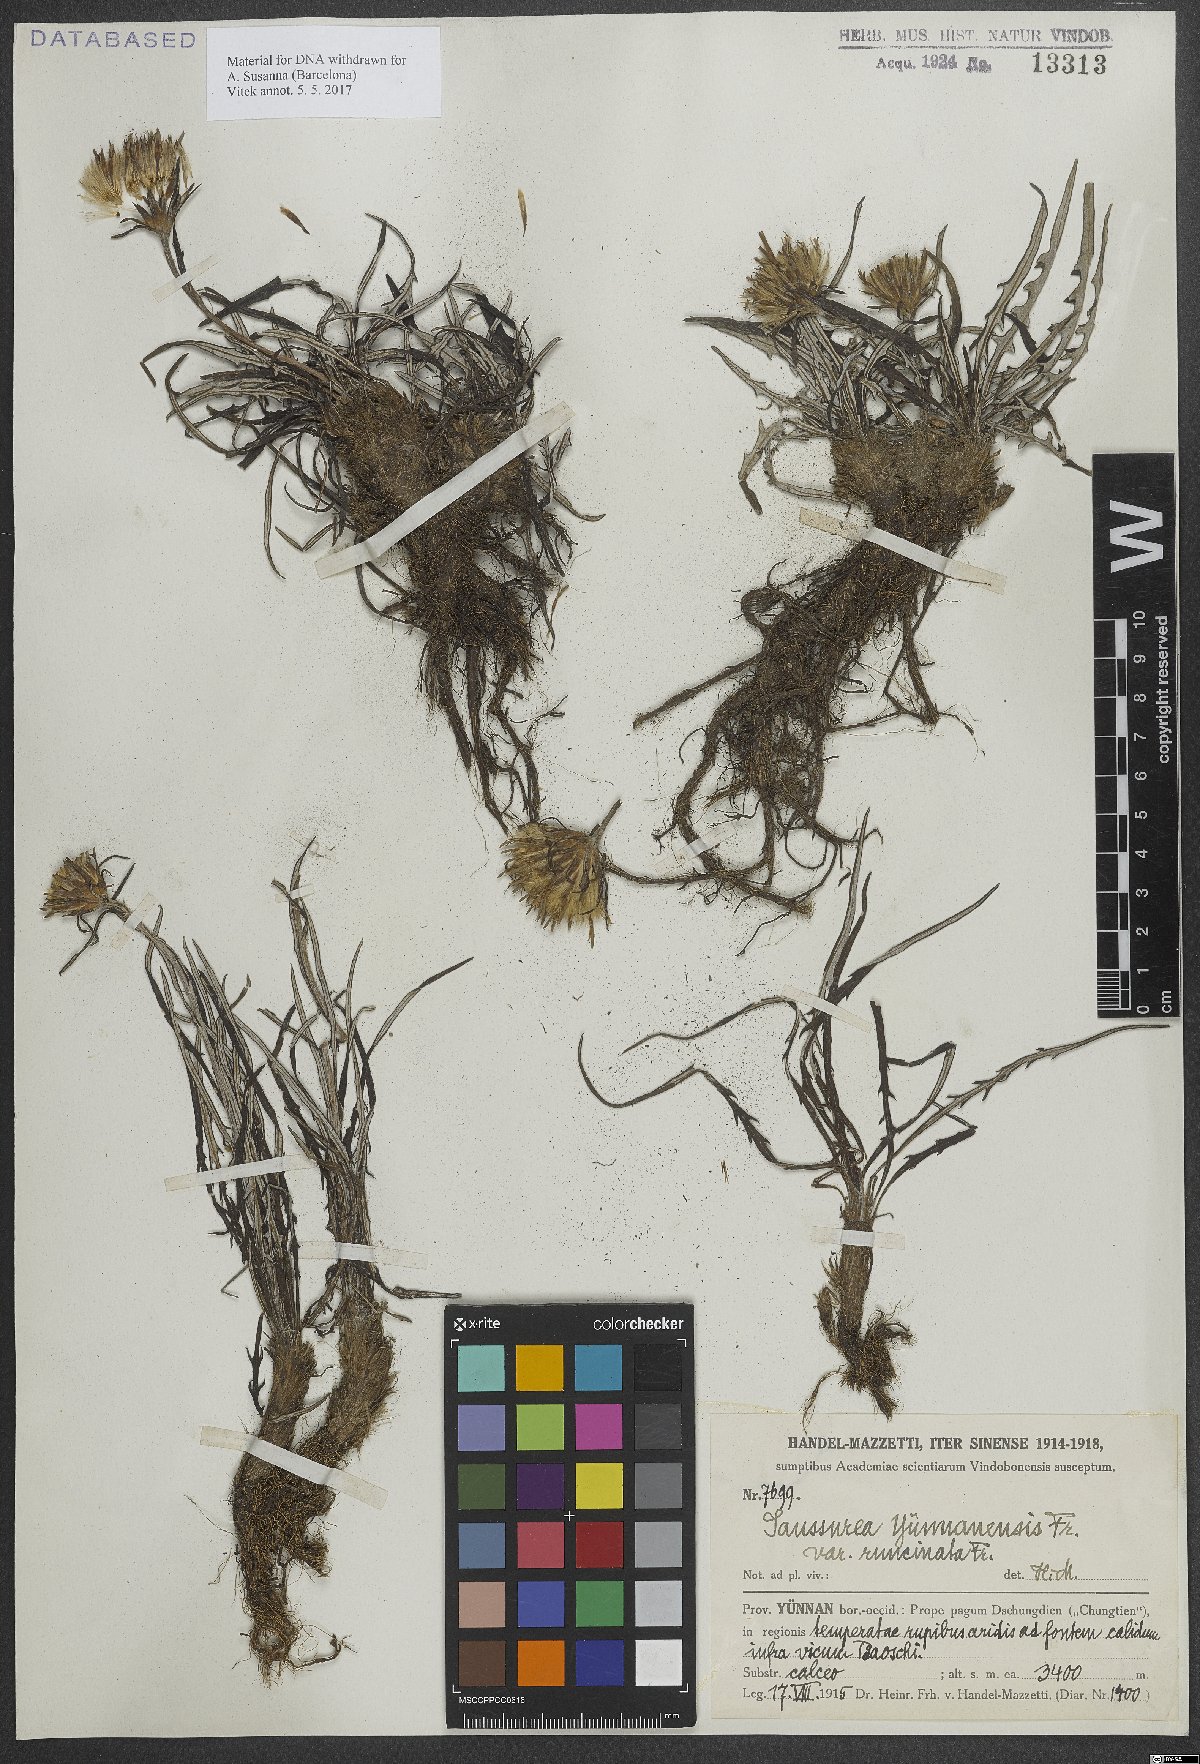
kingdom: Plantae
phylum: Tracheophyta
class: Magnoliopsida
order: Asterales
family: Asteraceae
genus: Saussurea
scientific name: Saussurea yunnanensis
